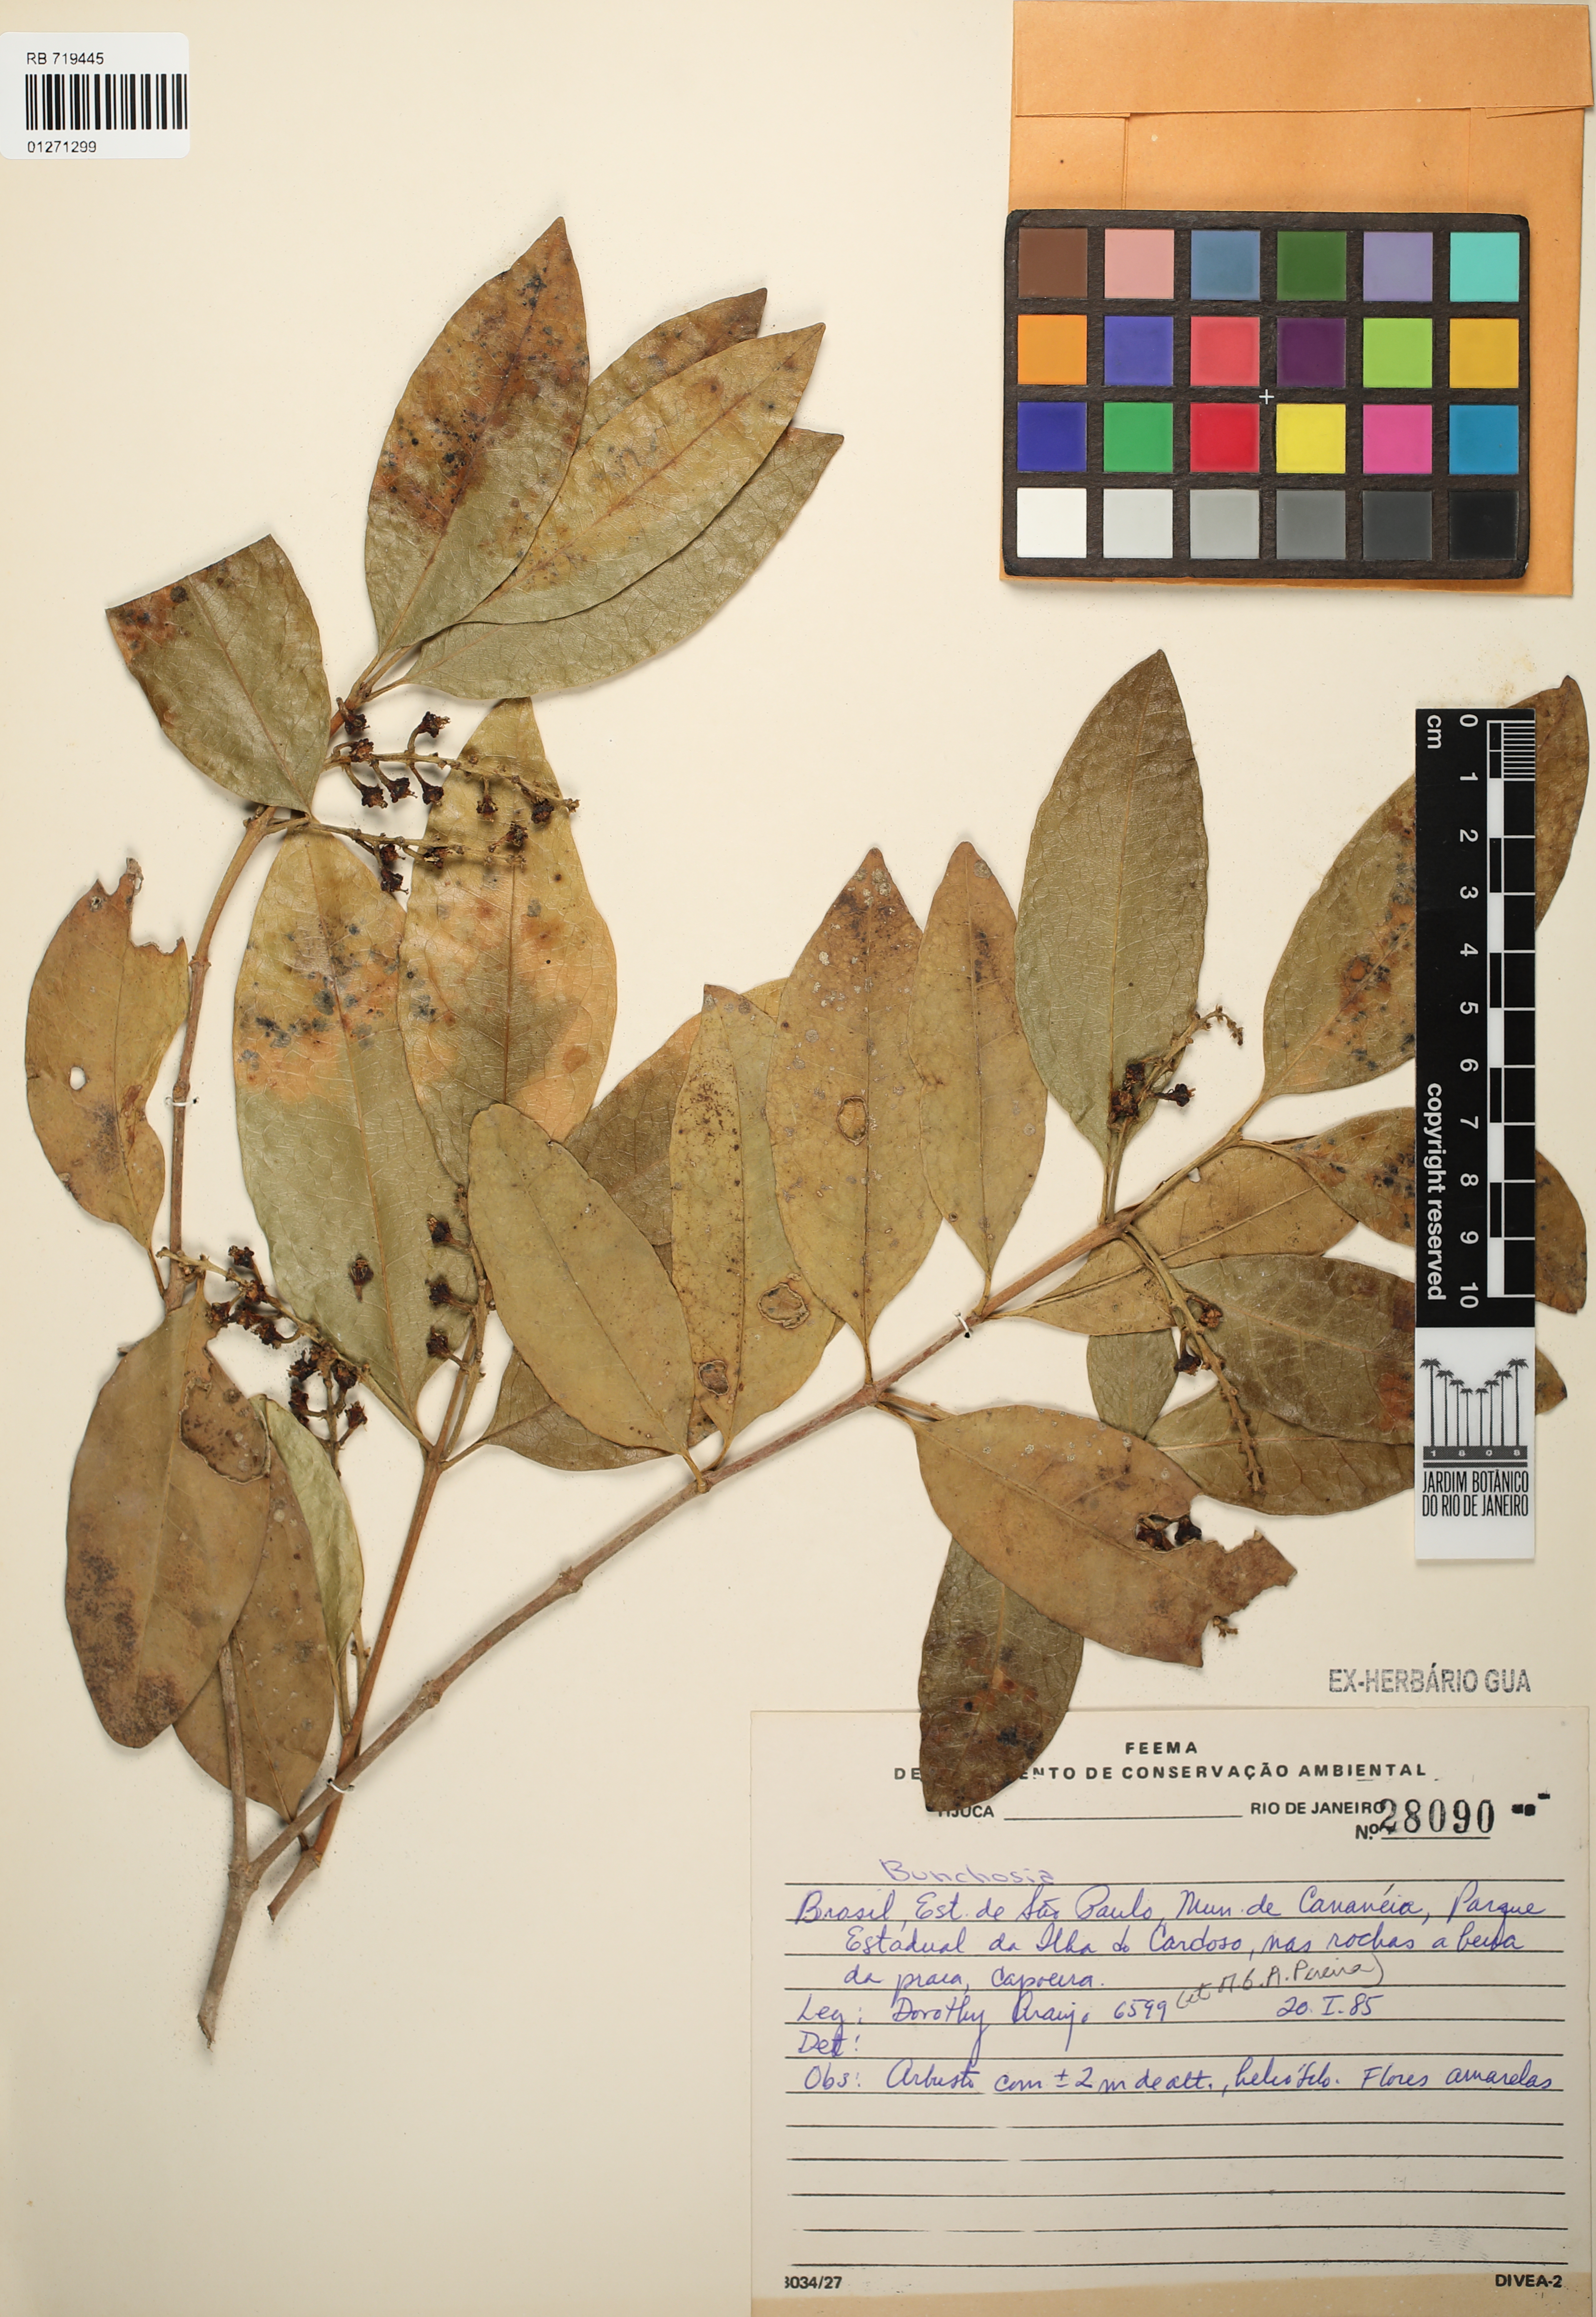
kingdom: Plantae
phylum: Tracheophyta
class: Magnoliopsida
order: Malpighiales
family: Malpighiaceae
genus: Bunchosia
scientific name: Bunchosia
